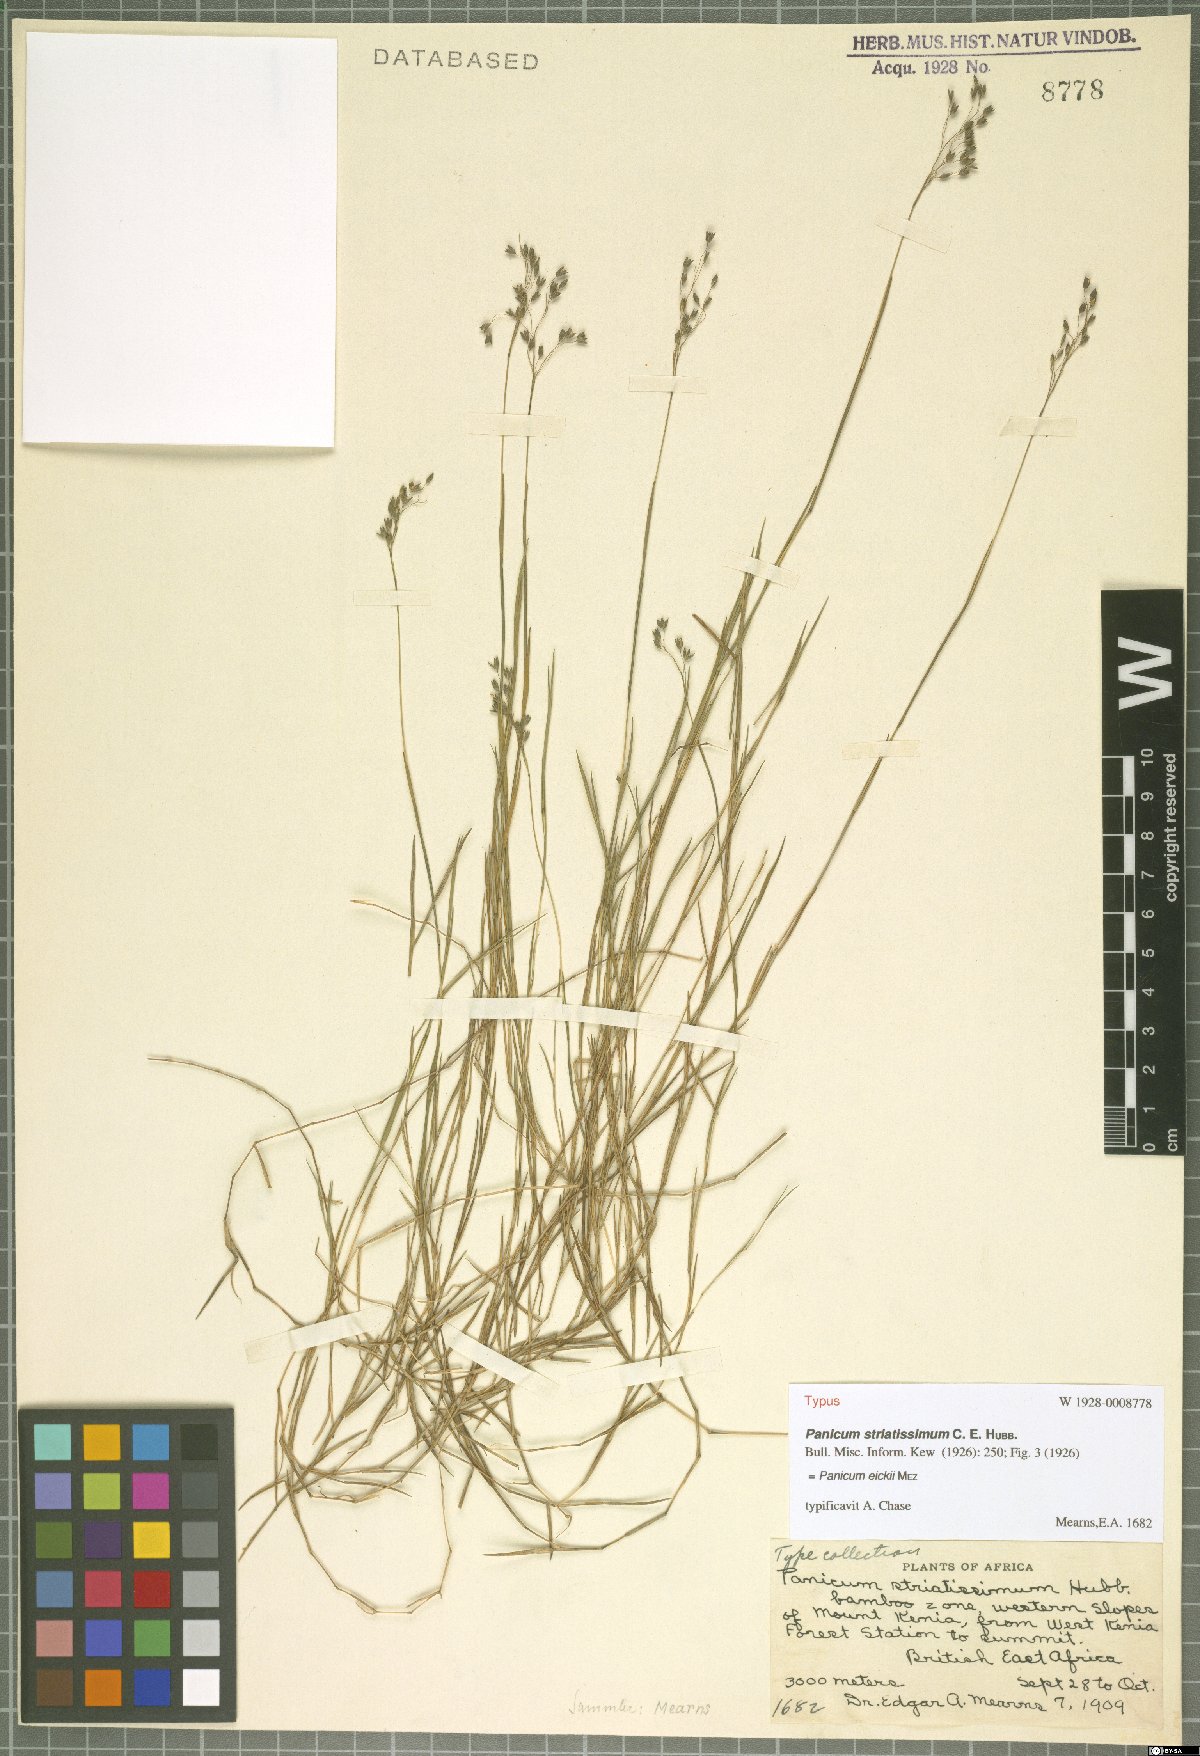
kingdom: Plantae
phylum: Tracheophyta
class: Liliopsida
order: Poales
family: Poaceae
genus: Panicum
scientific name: Panicum eickii
